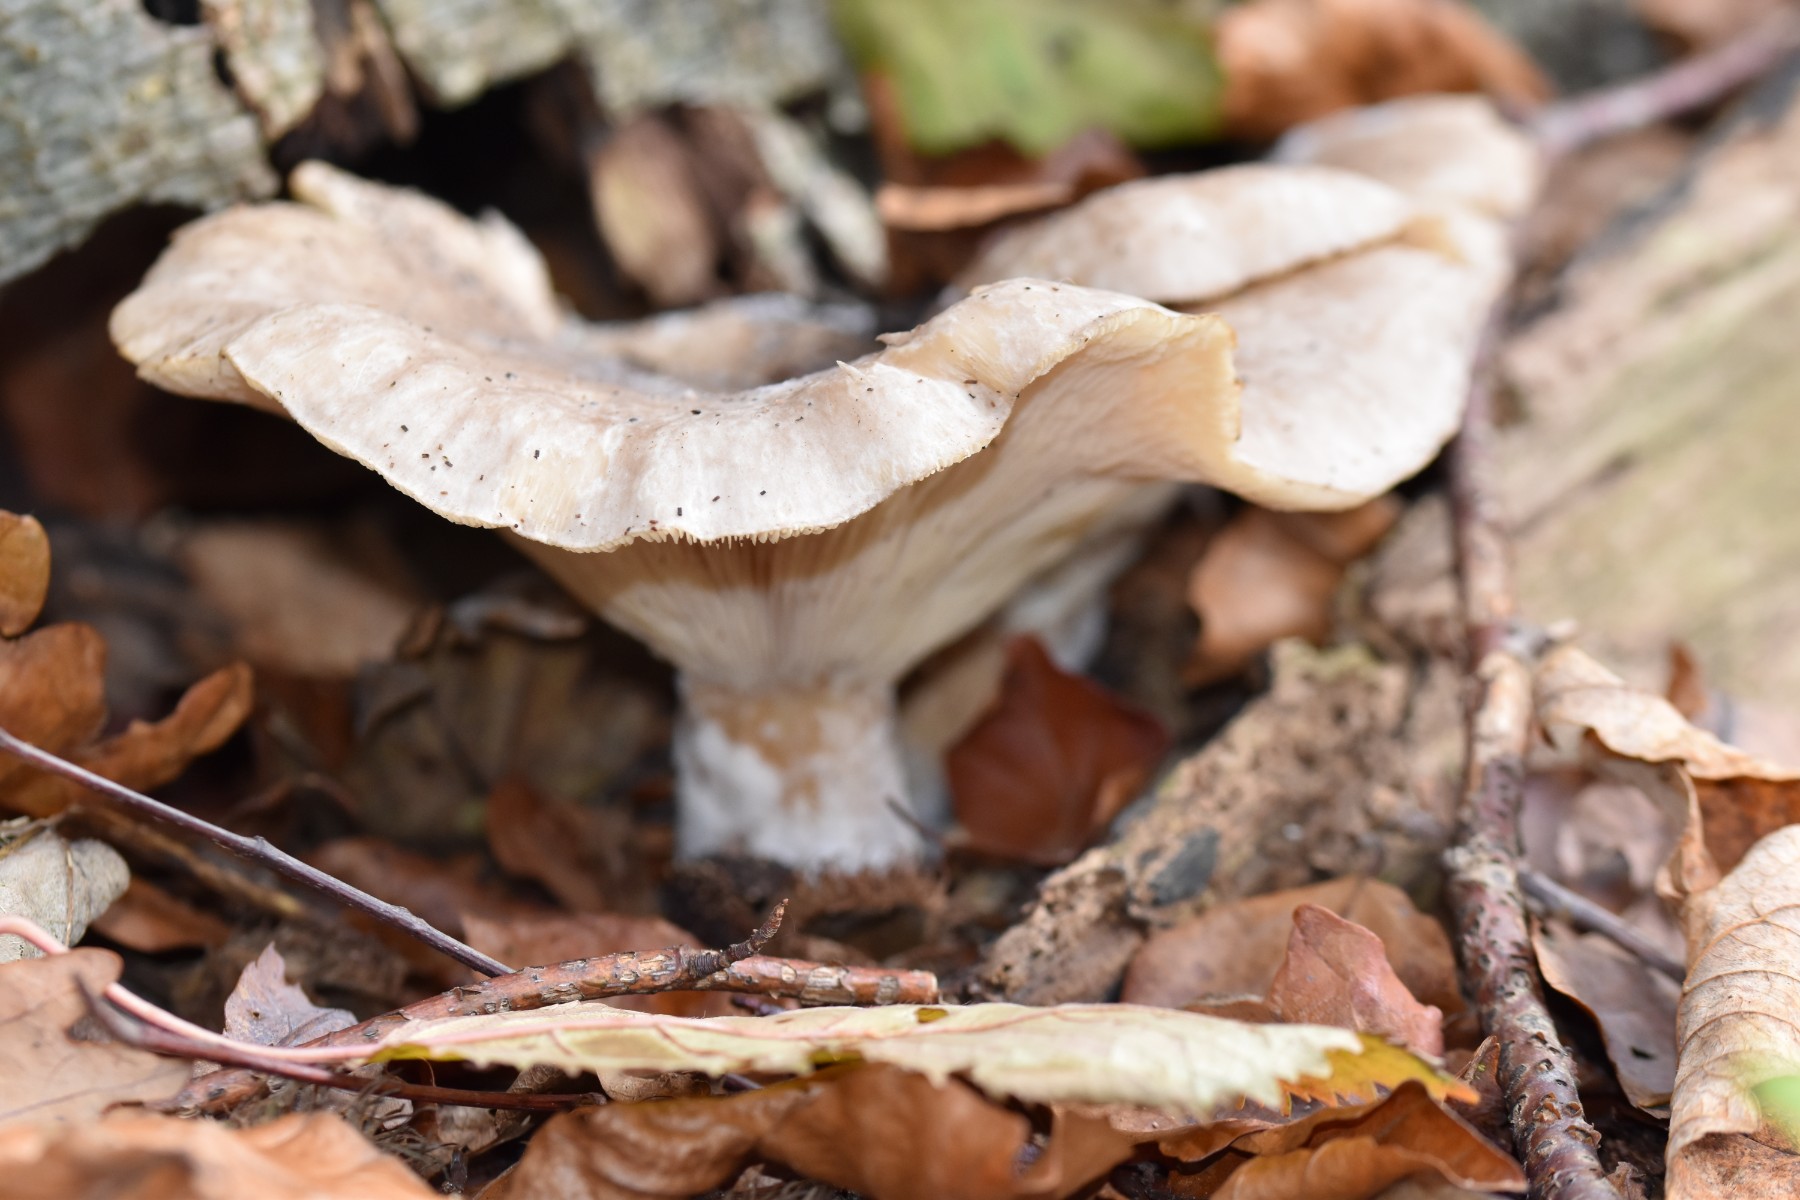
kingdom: Fungi
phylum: Basidiomycota
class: Agaricomycetes
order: Agaricales
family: Tricholomataceae
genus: Clitocybe
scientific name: Clitocybe nebularis
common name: tåge-tragthat
